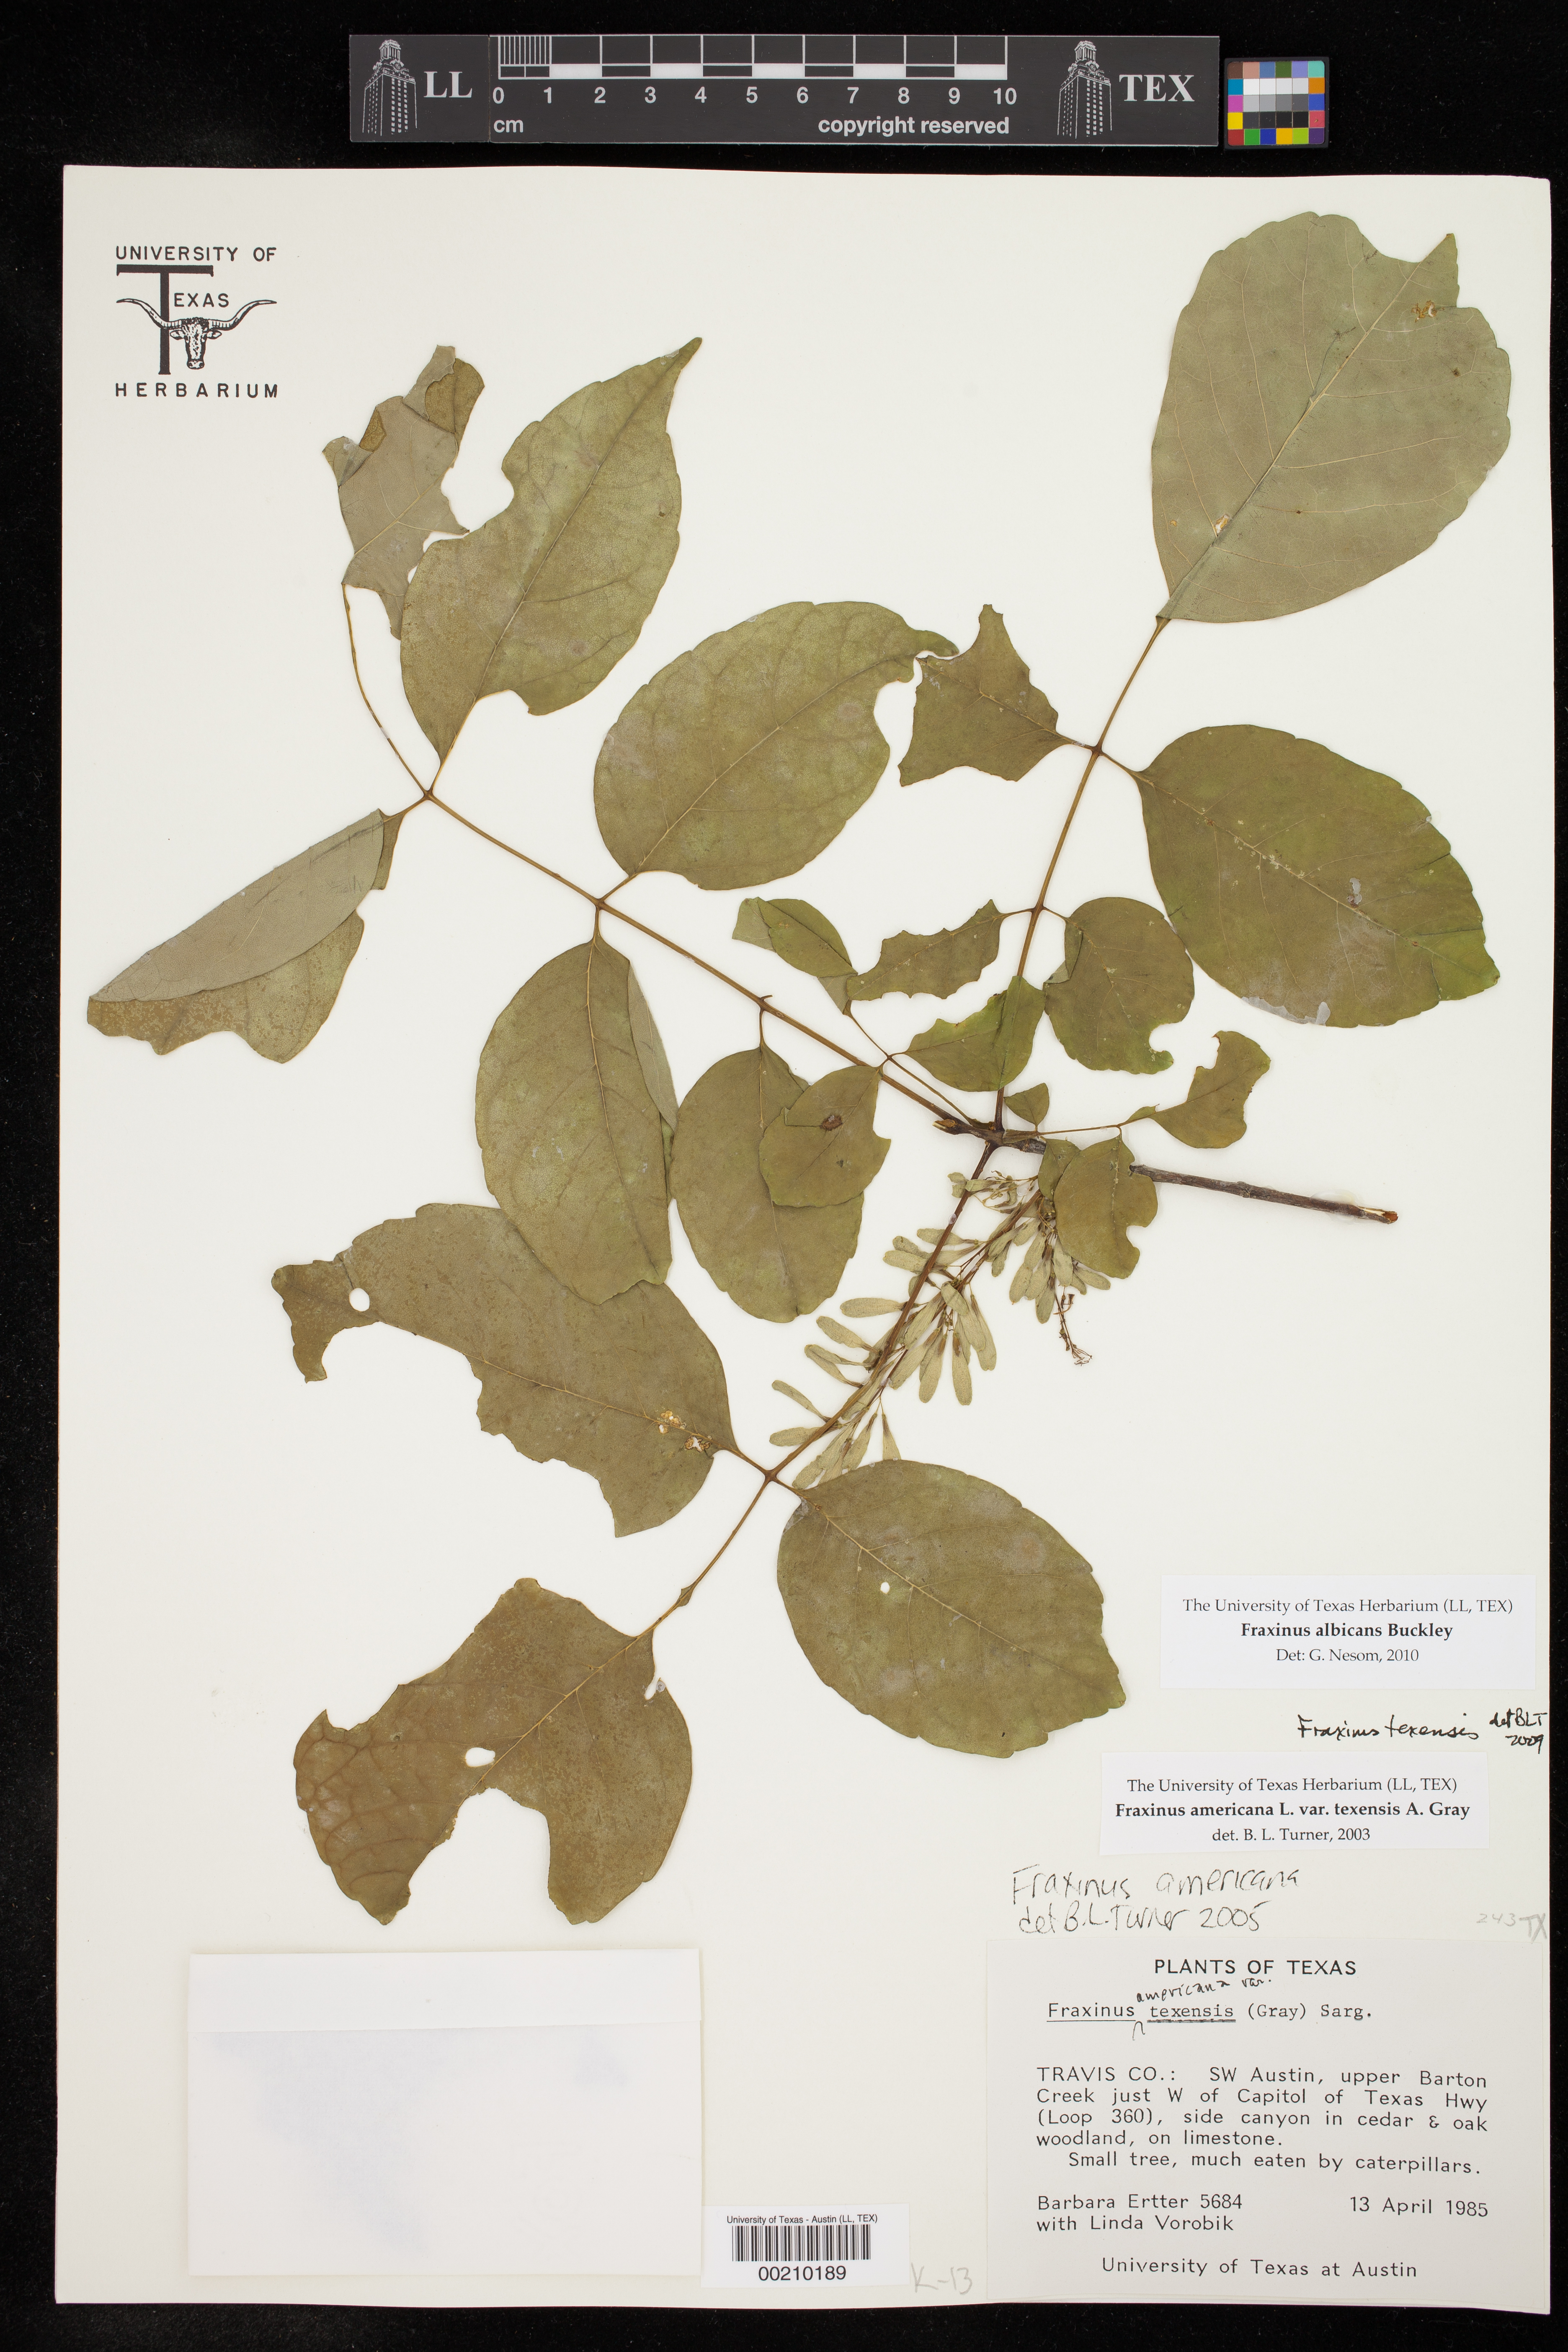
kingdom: Plantae
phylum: Tracheophyta
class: Magnoliopsida
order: Lamiales
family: Oleaceae
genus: Fraxinus
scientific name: Fraxinus albicans
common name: Texas ash
